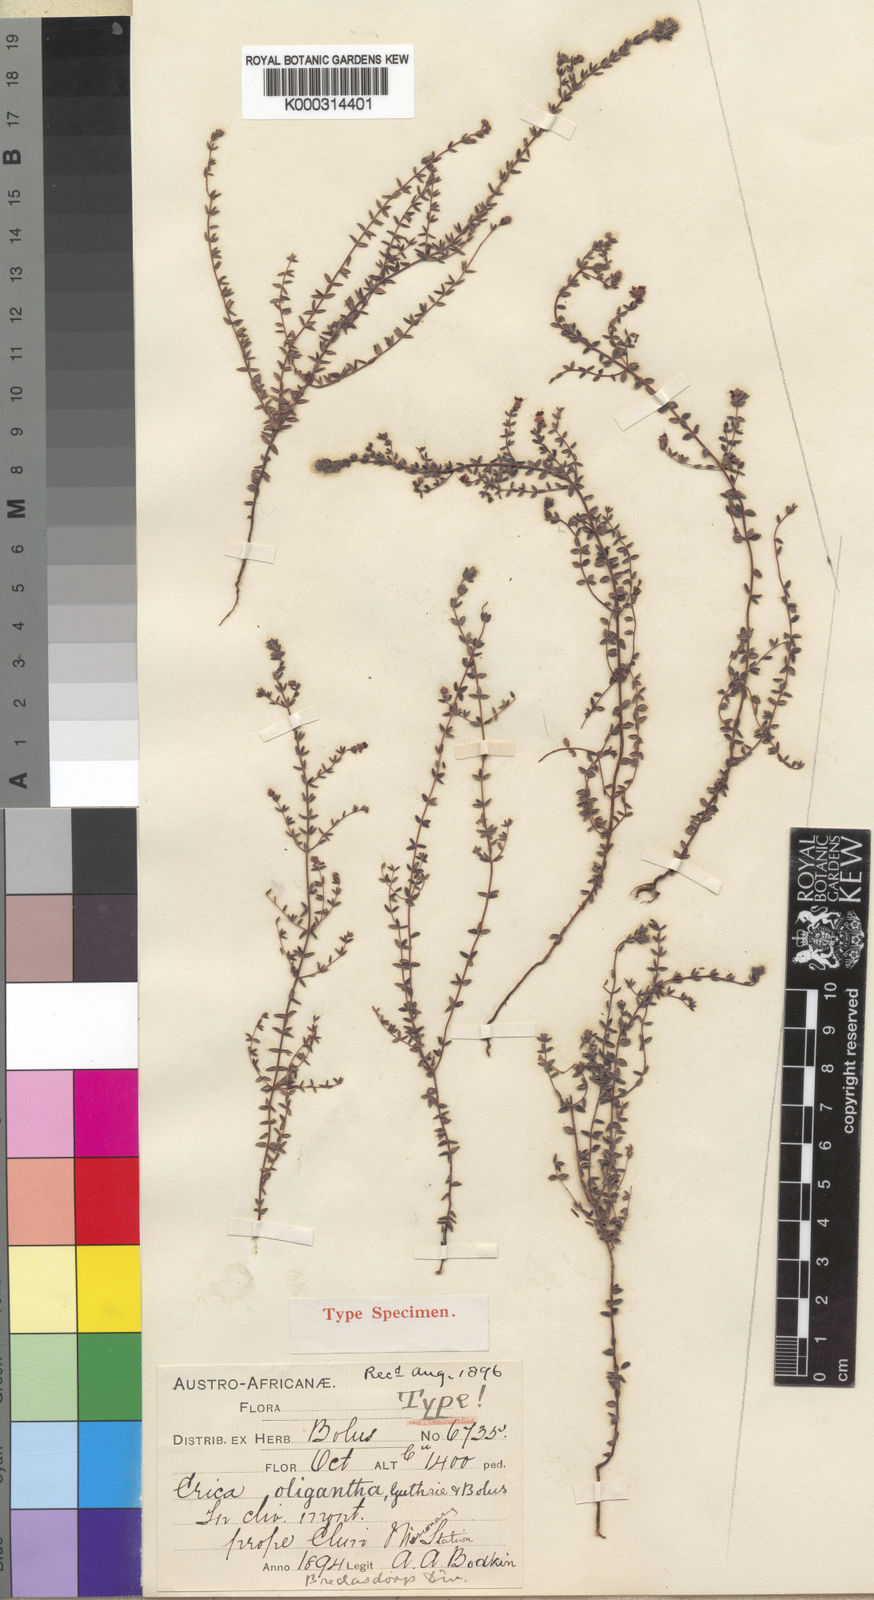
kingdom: Plantae
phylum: Tracheophyta
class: Magnoliopsida
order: Ericales
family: Ericaceae
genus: Erica
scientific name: Erica oligantha
